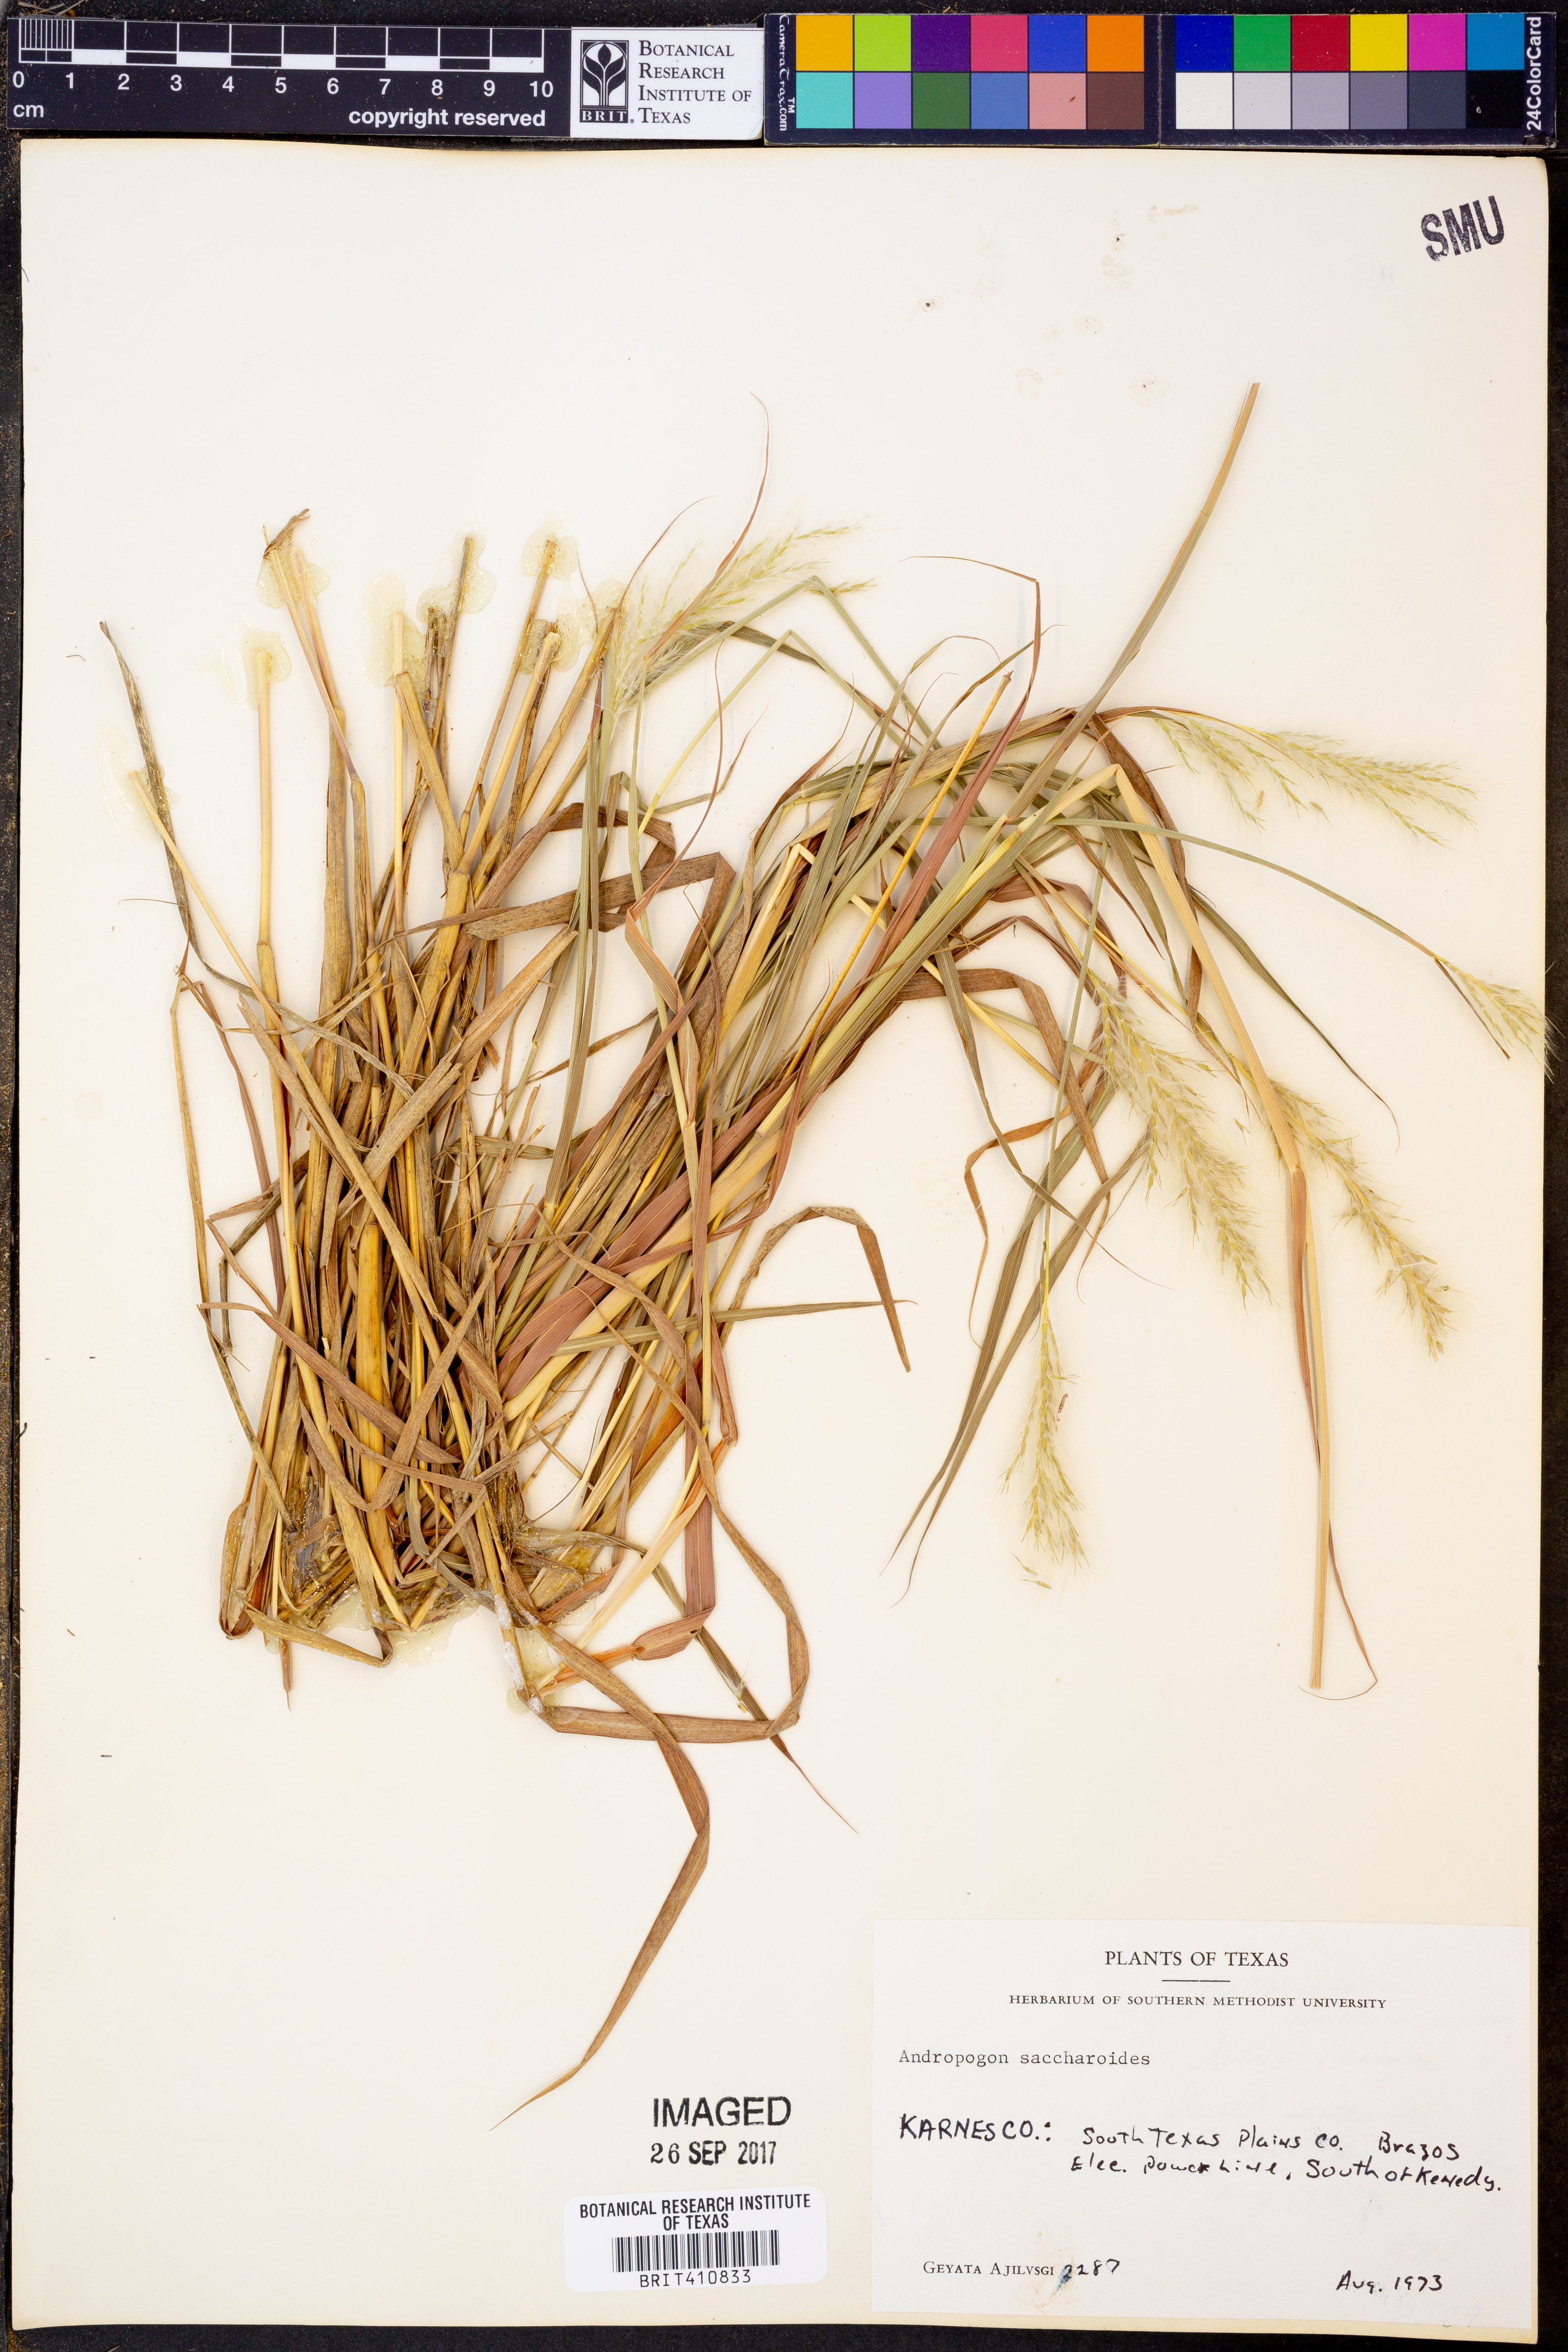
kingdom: Plantae
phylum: Tracheophyta
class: Liliopsida
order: Poales
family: Poaceae
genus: Bothriochloa
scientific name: Bothriochloa saccharoides
